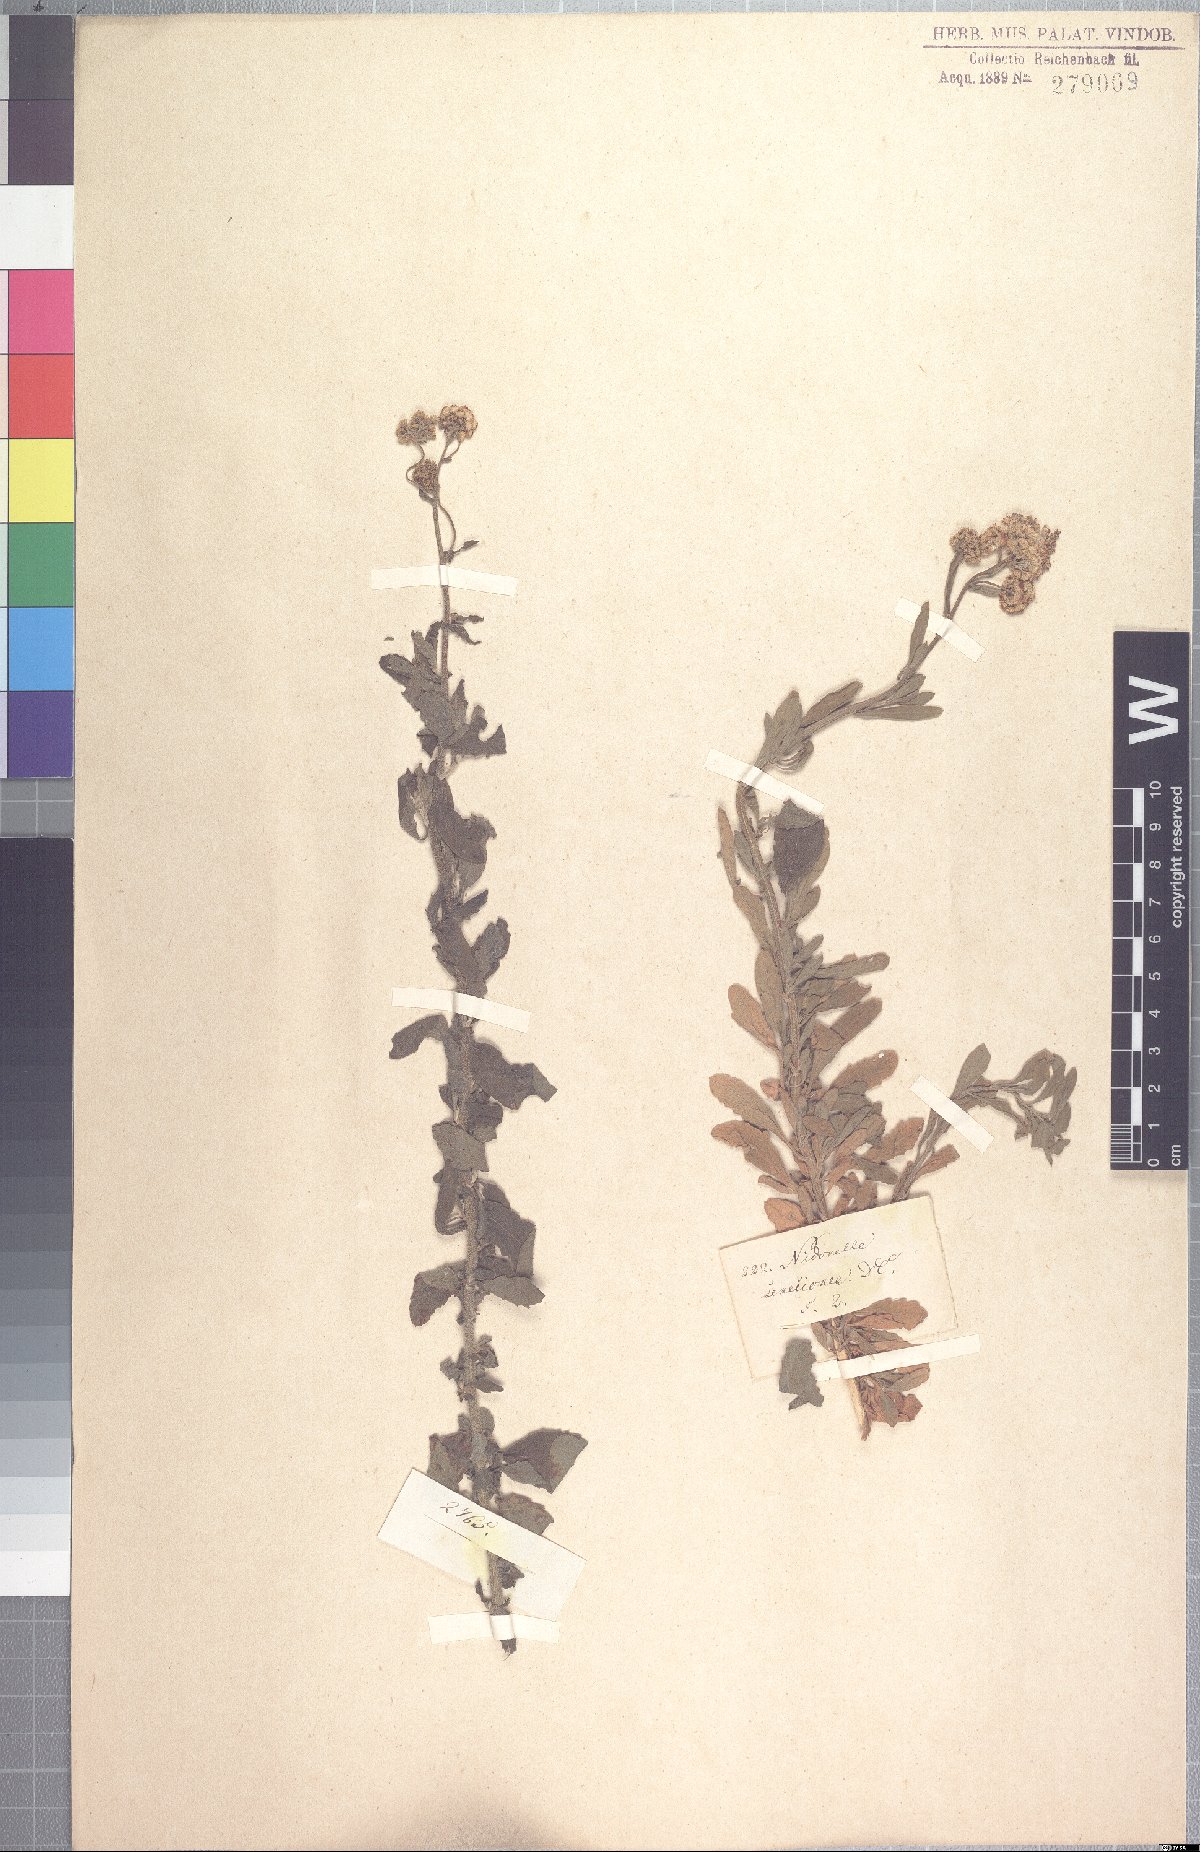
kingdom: Plantae
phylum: Tracheophyta
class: Magnoliopsida
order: Asterales
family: Asteraceae
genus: Nidorella
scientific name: Nidorella auriculata
